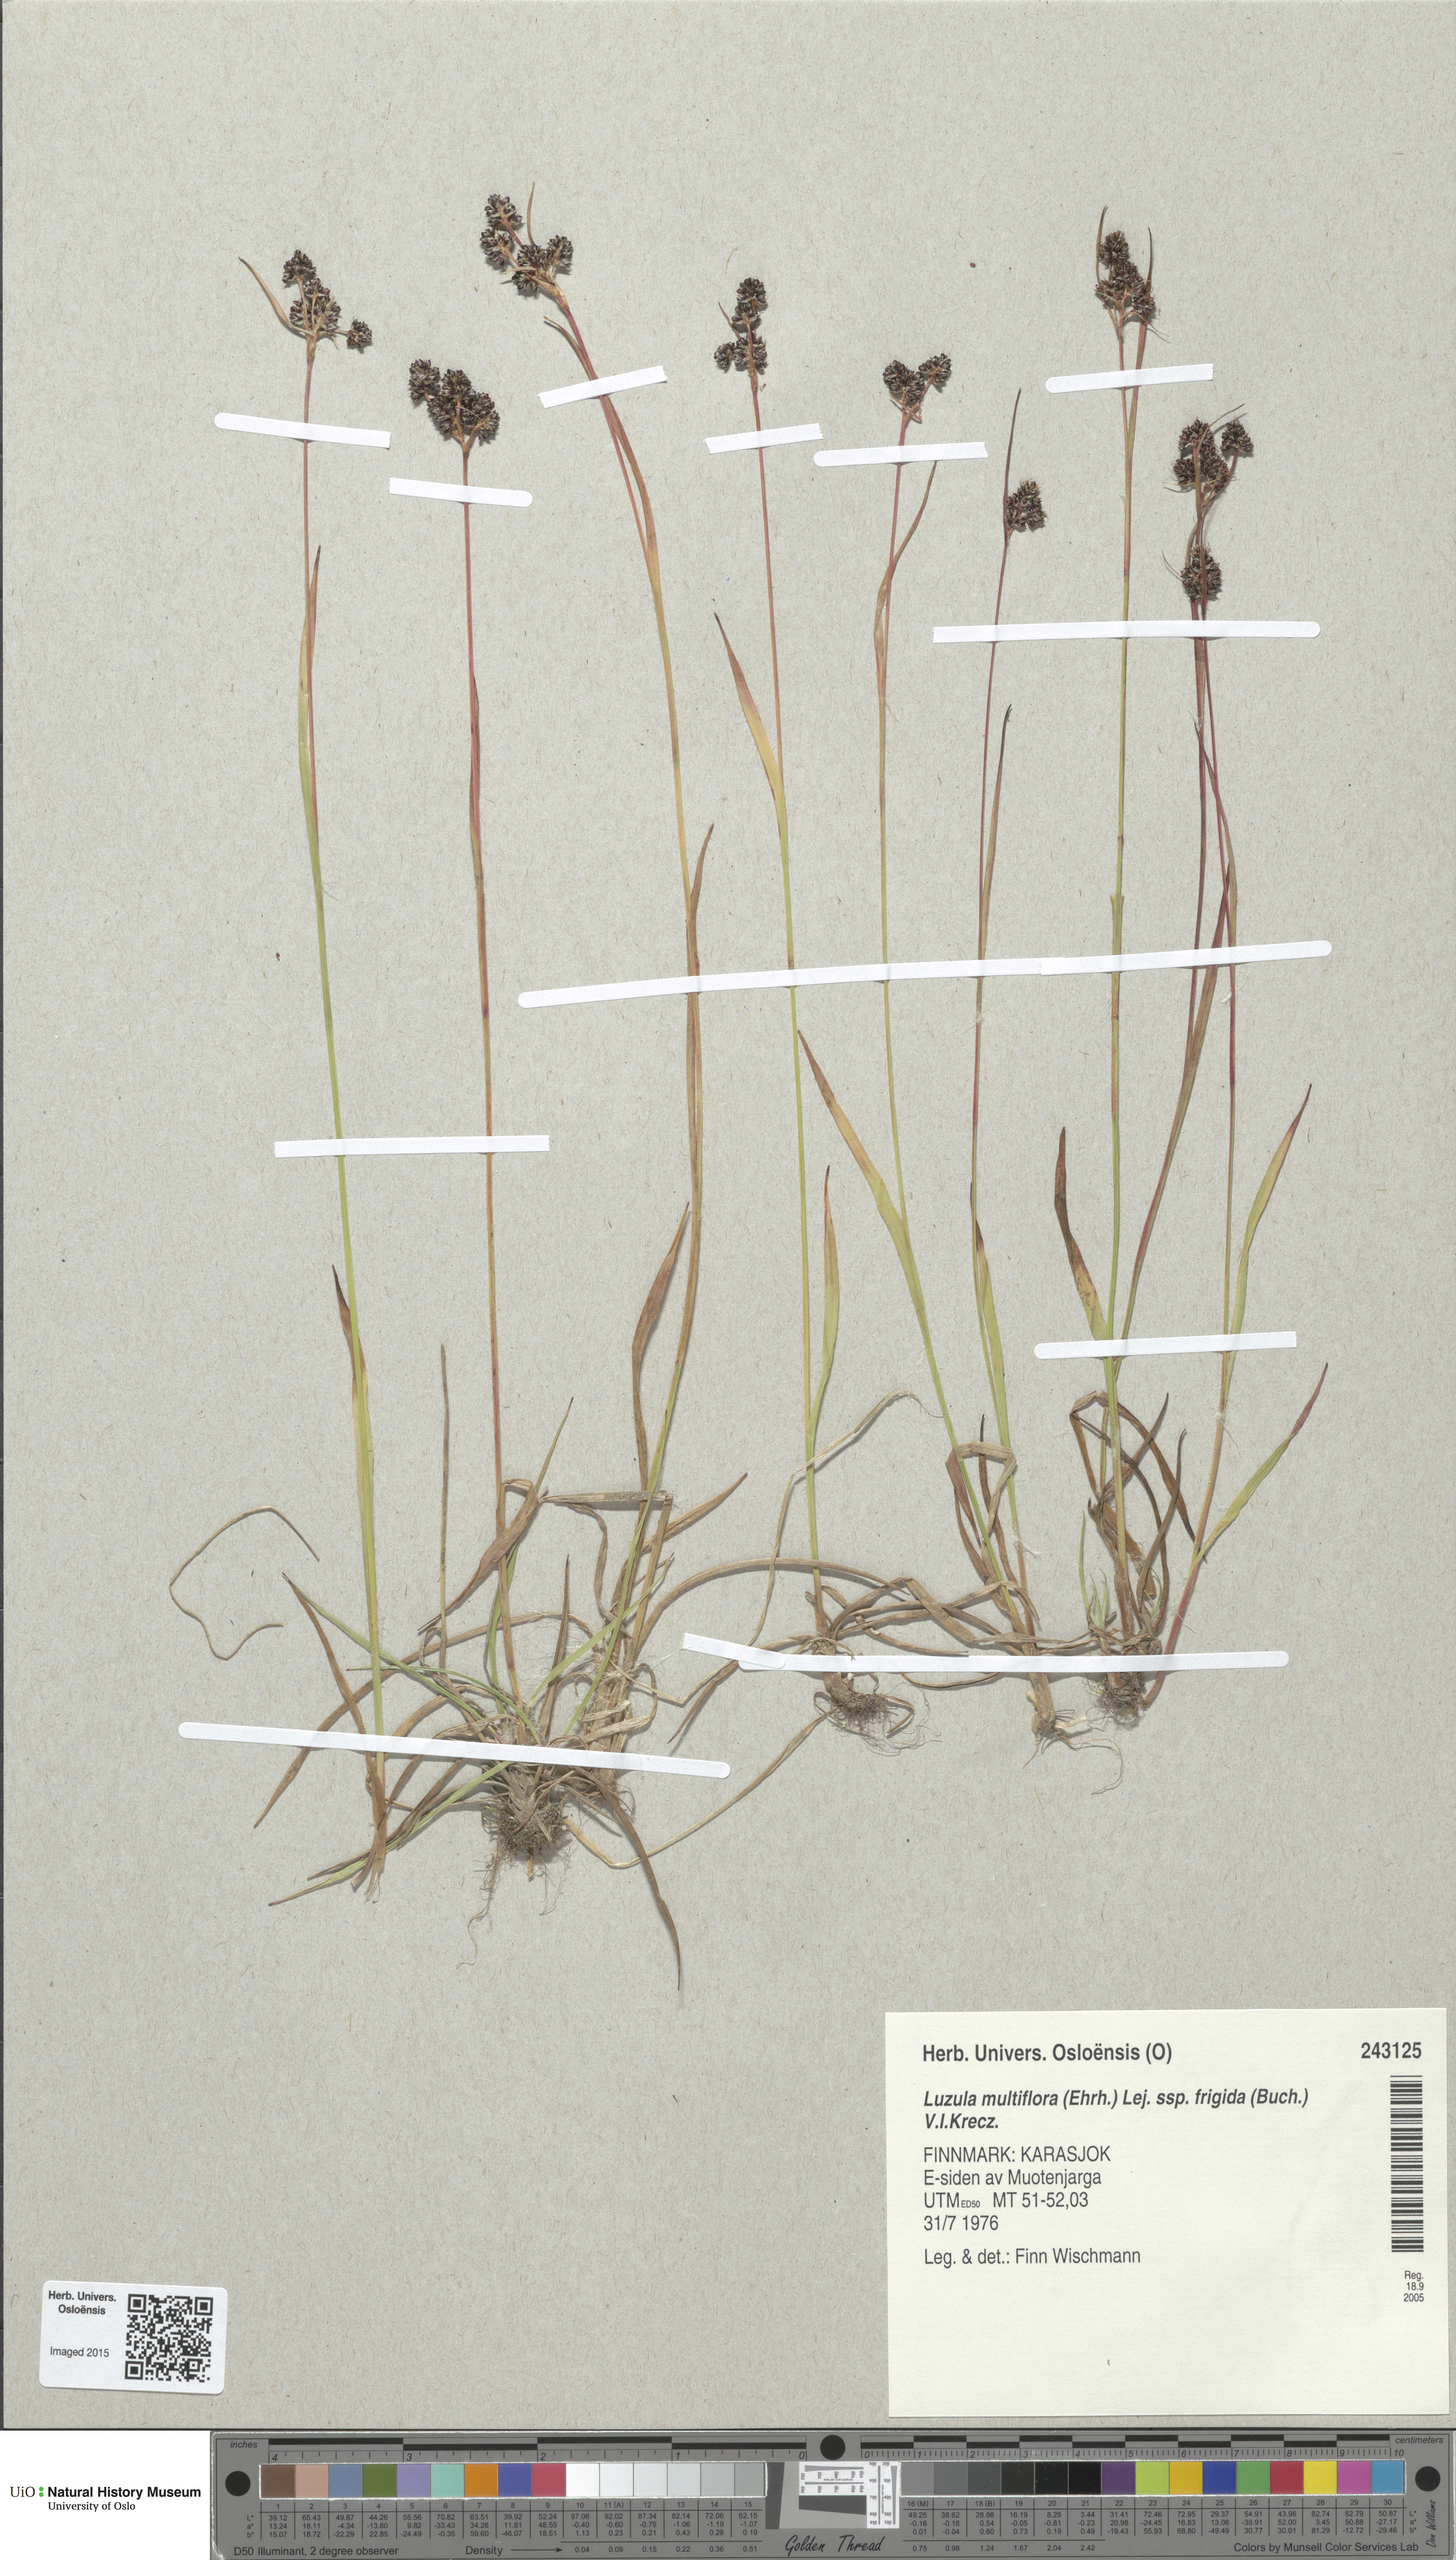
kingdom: Plantae
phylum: Tracheophyta
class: Liliopsida
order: Poales
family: Juncaceae
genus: Luzula
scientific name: Luzula multiflora
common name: Heath wood-rush
